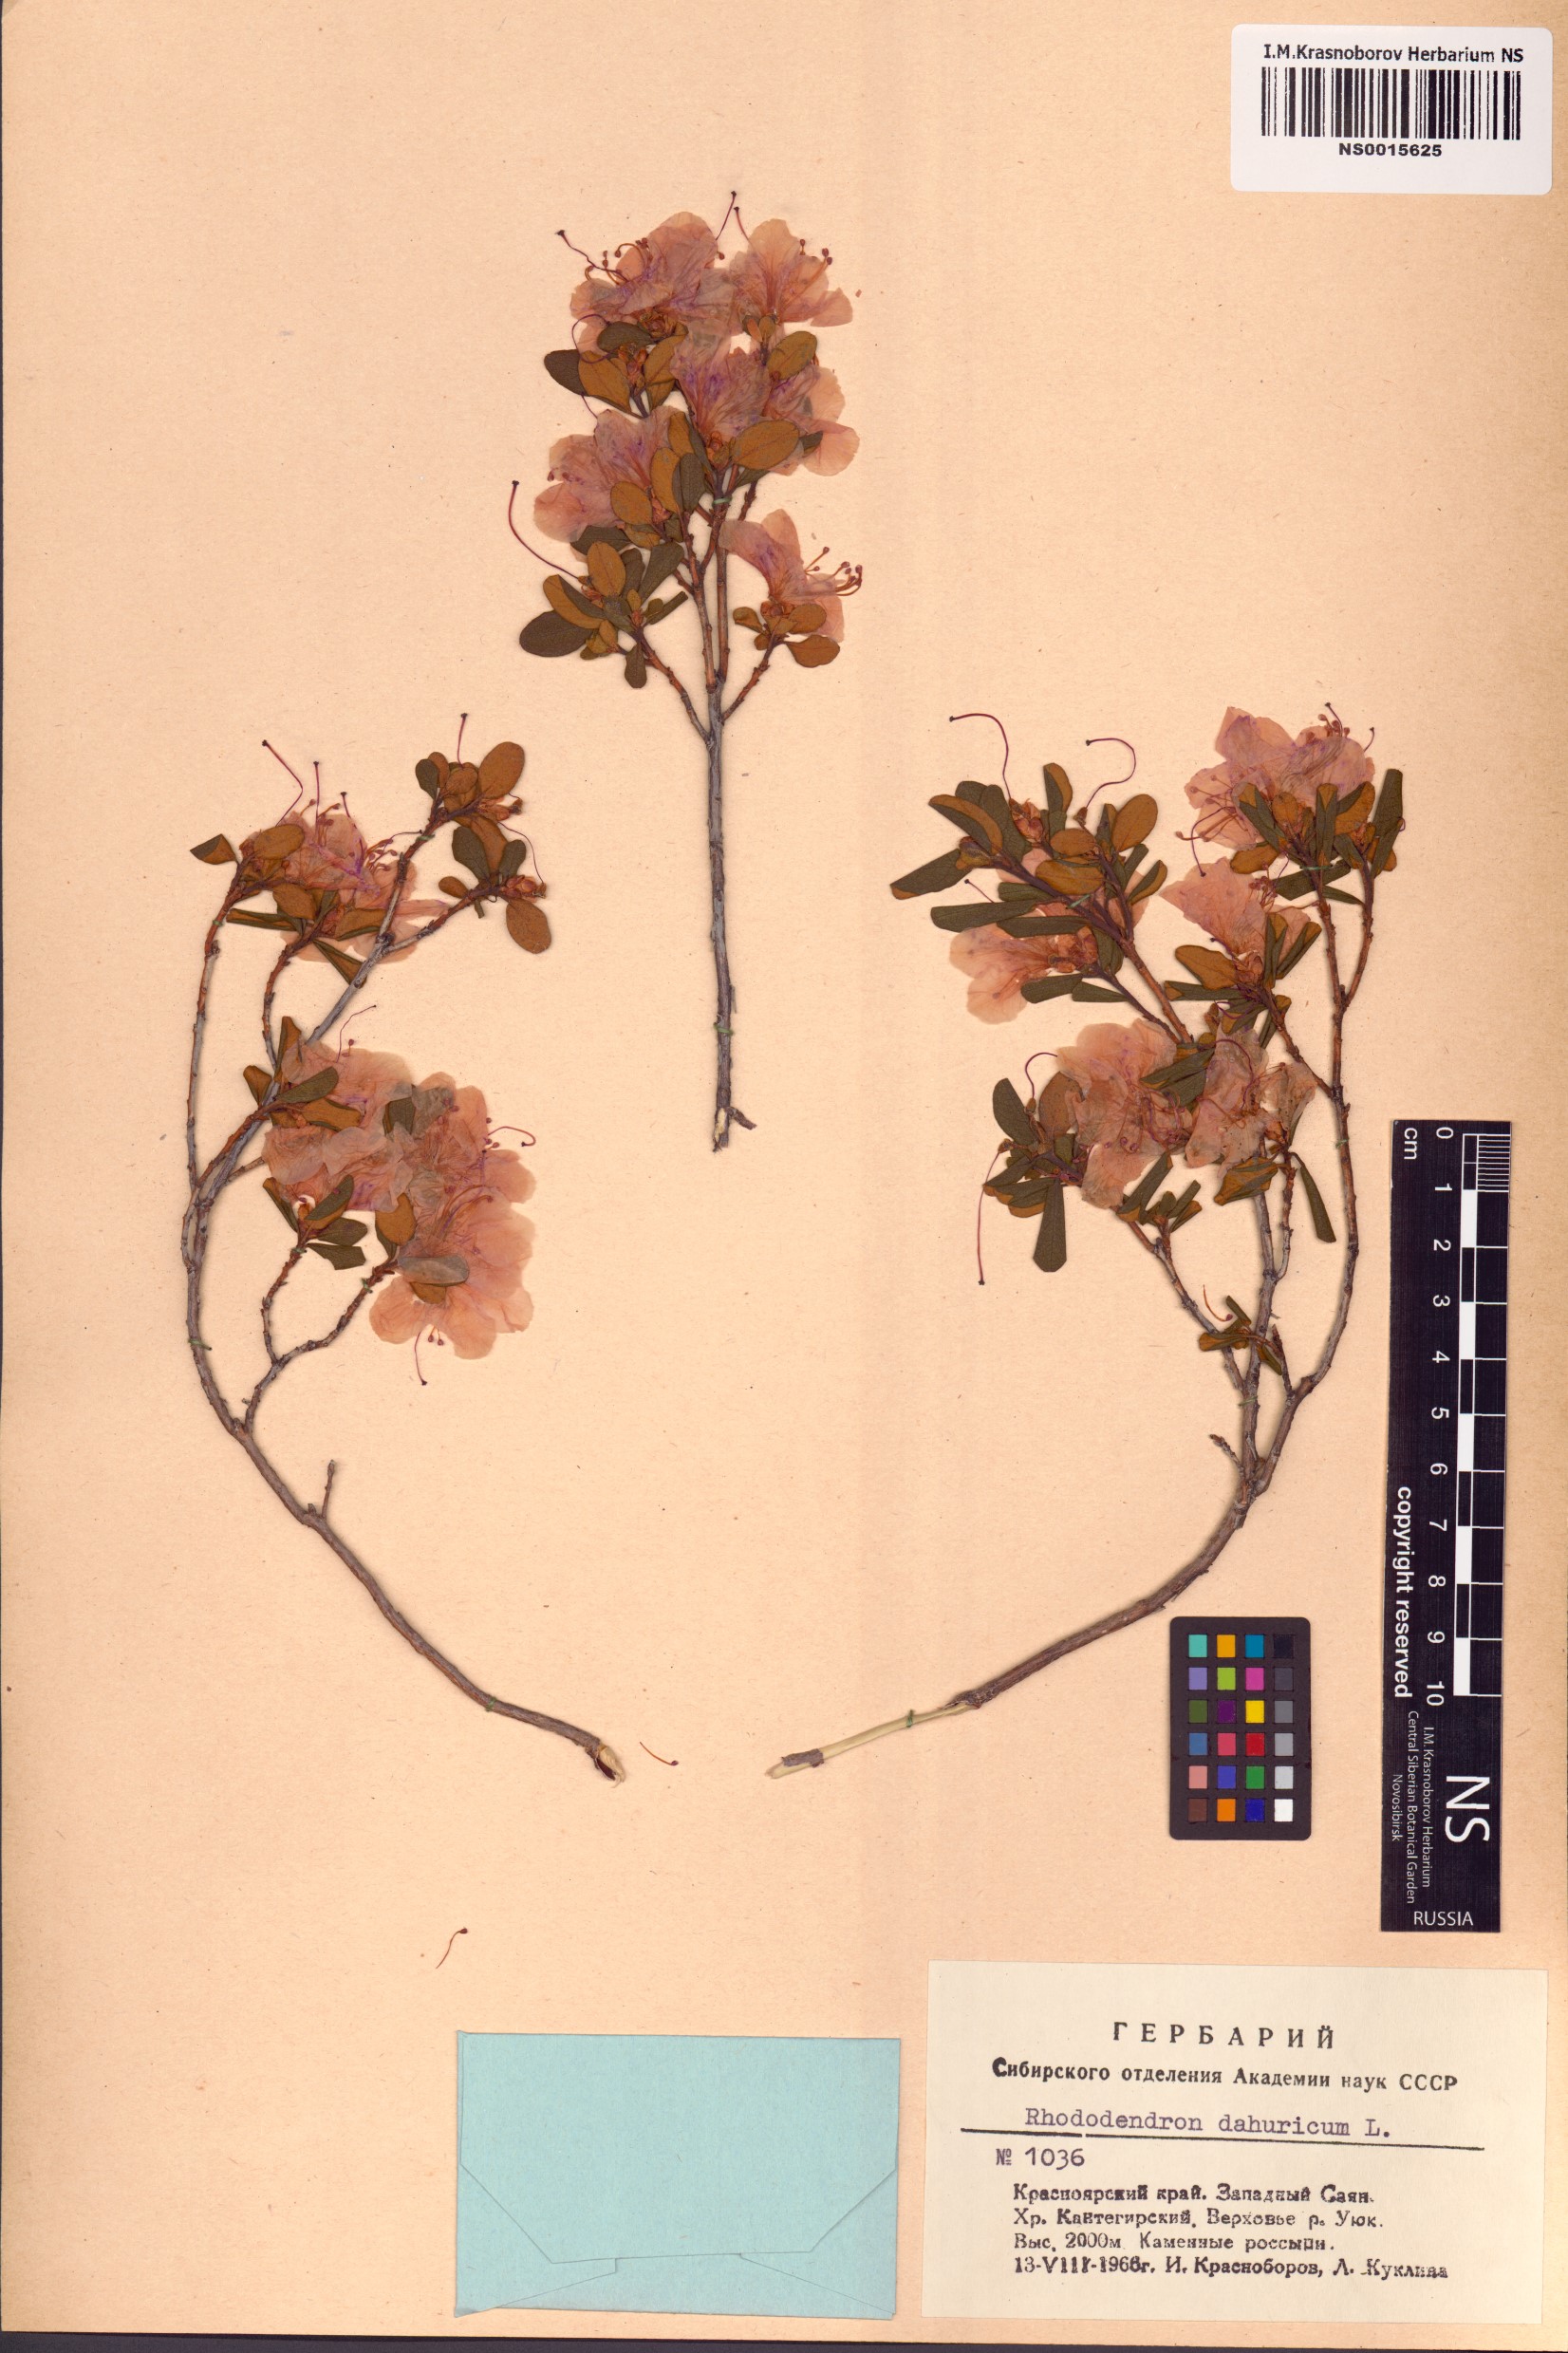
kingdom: Plantae
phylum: Tracheophyta
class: Magnoliopsida
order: Ericales
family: Ericaceae
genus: Rhododendron
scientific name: Rhododendron dauricum
